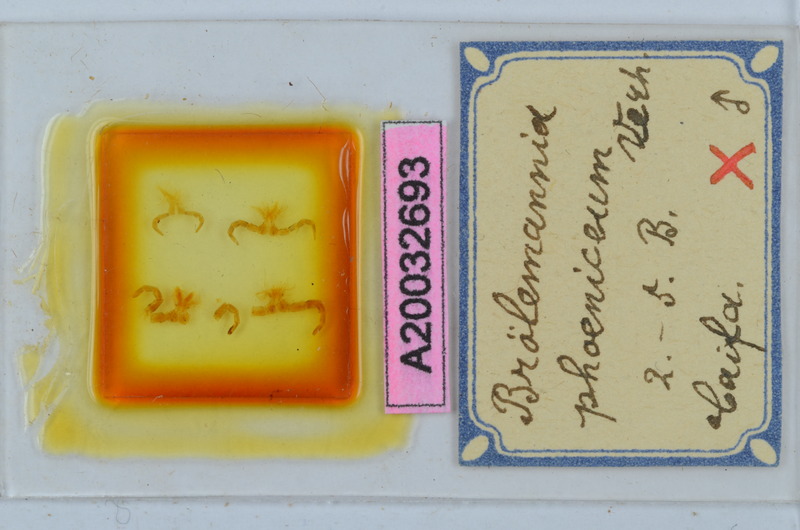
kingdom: Animalia
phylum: Arthropoda
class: Diplopoda
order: Callipodida
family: Schizopetalidae
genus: Broelemannia
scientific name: Broelemannia phoenicea
